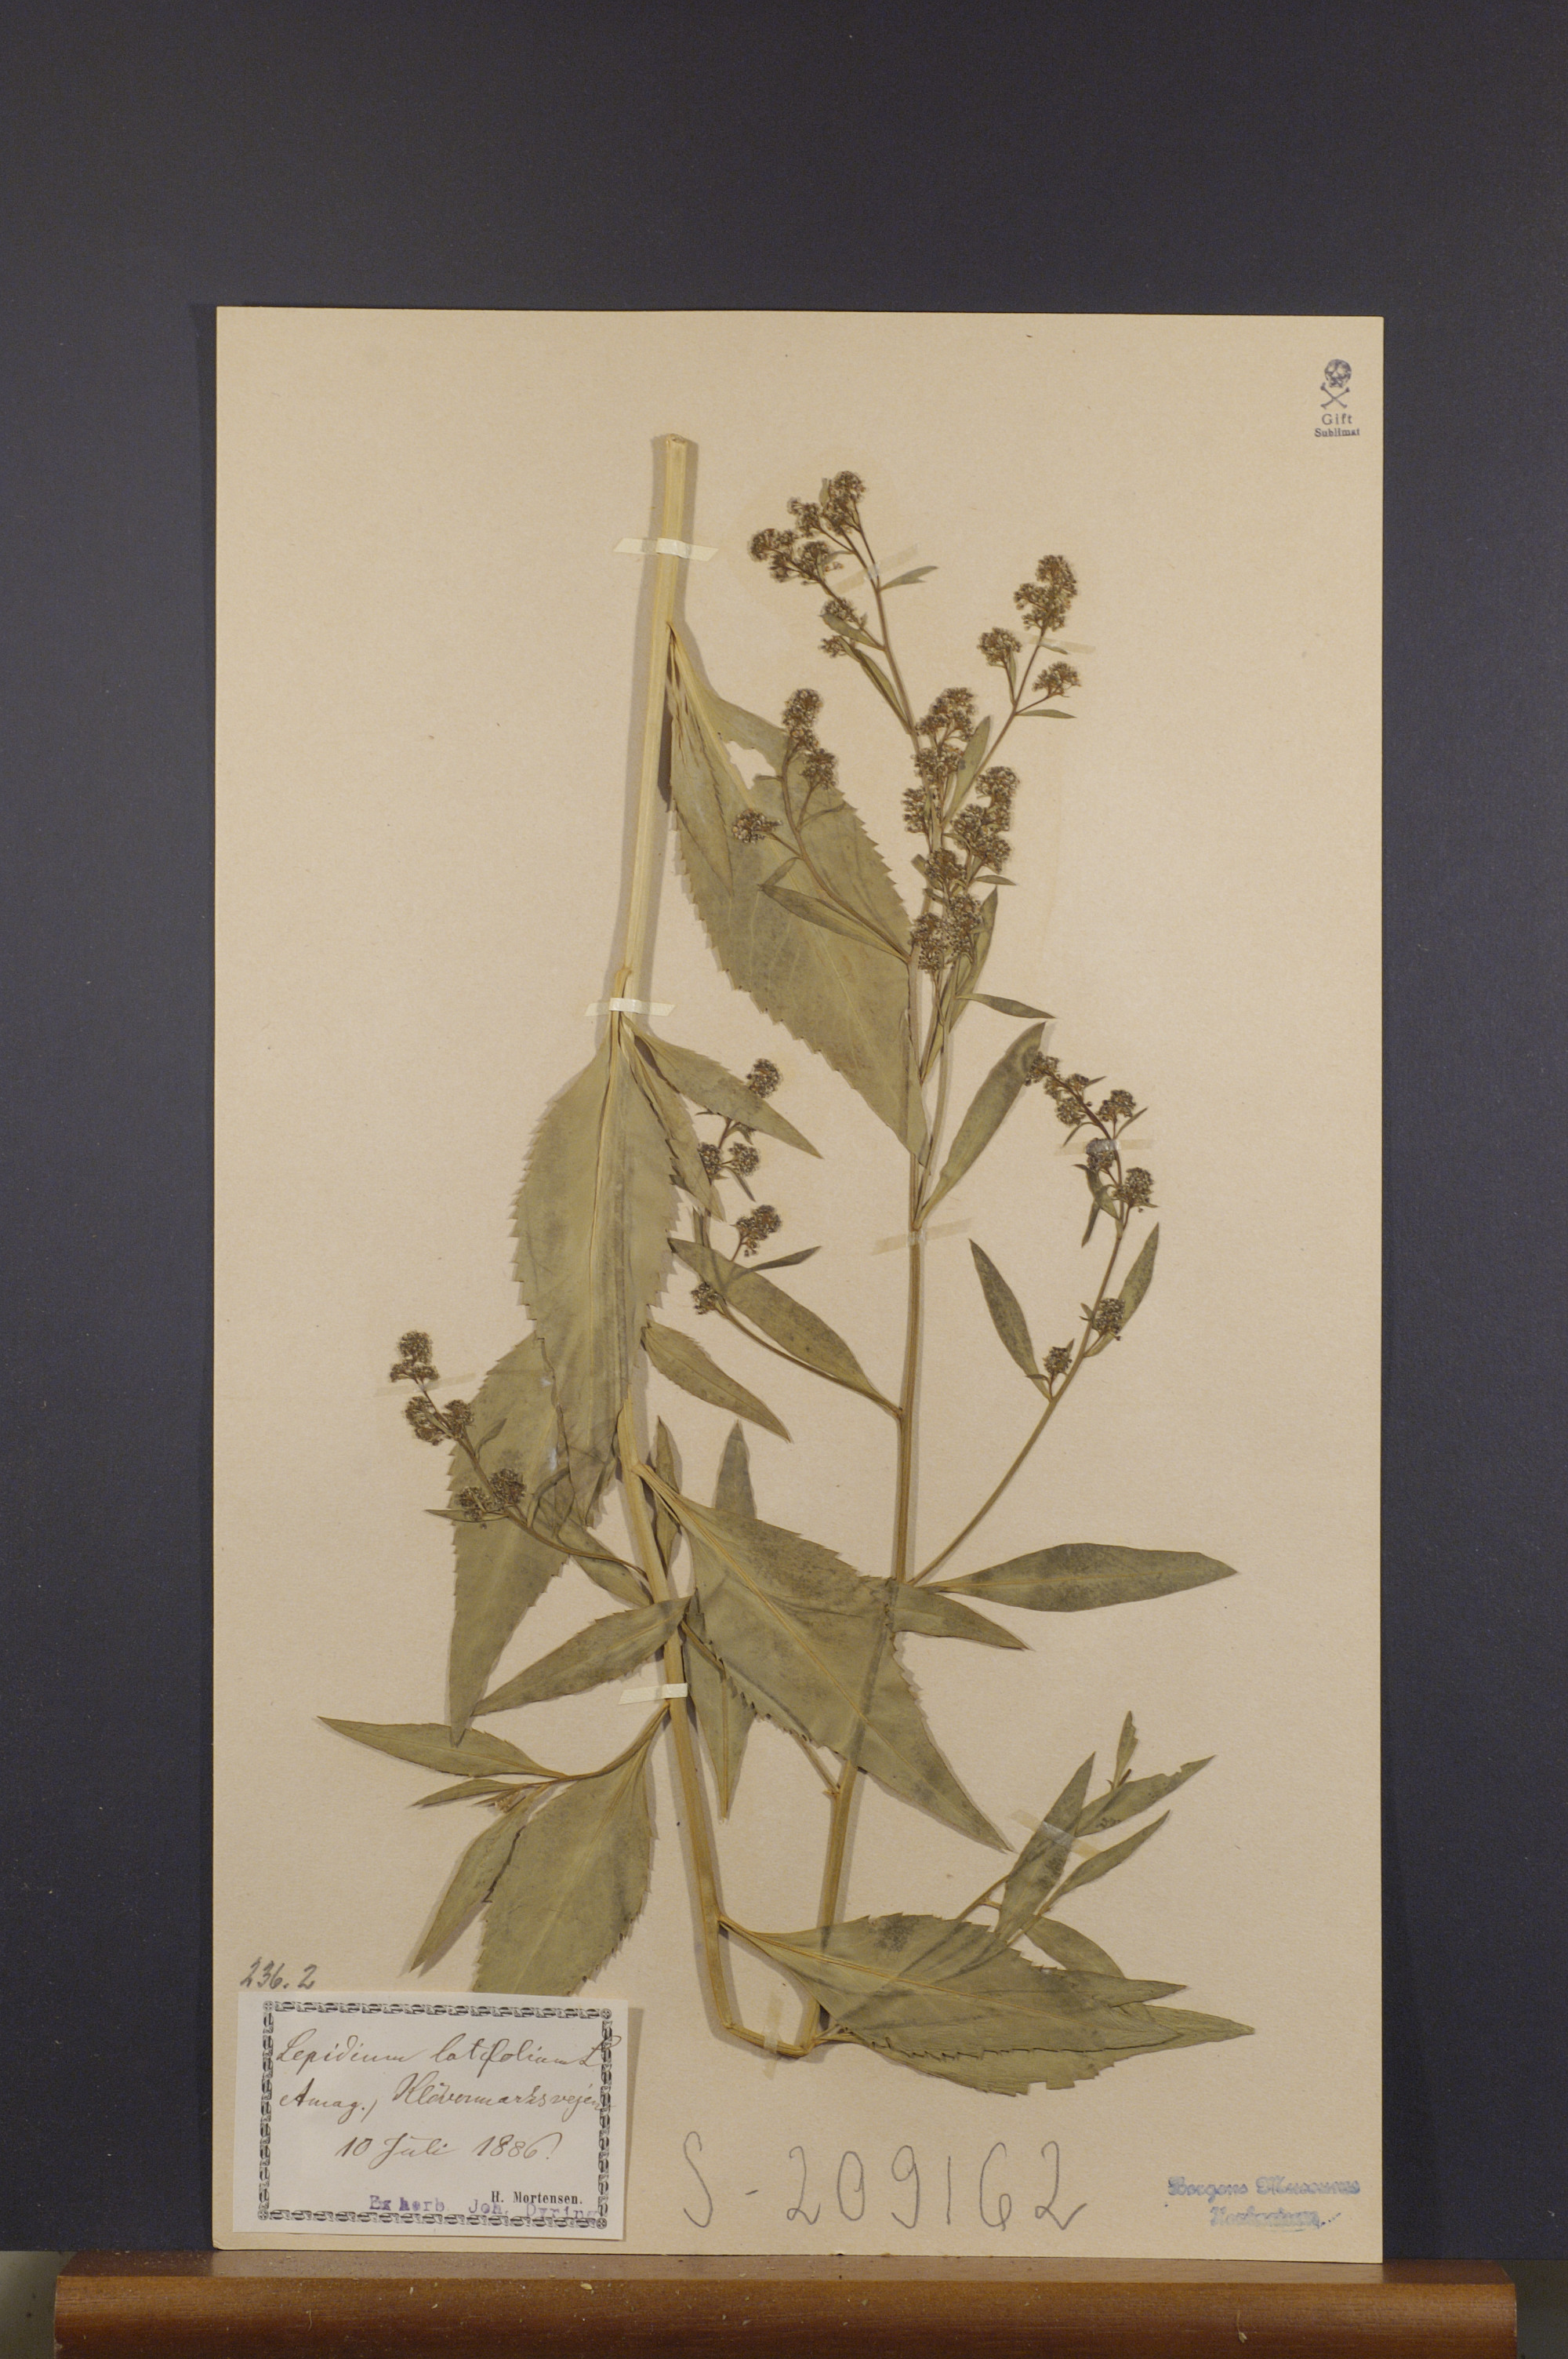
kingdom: Plantae
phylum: Tracheophyta
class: Magnoliopsida
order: Brassicales
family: Brassicaceae
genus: Lepidium
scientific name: Lepidium latifolium
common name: Dittander
